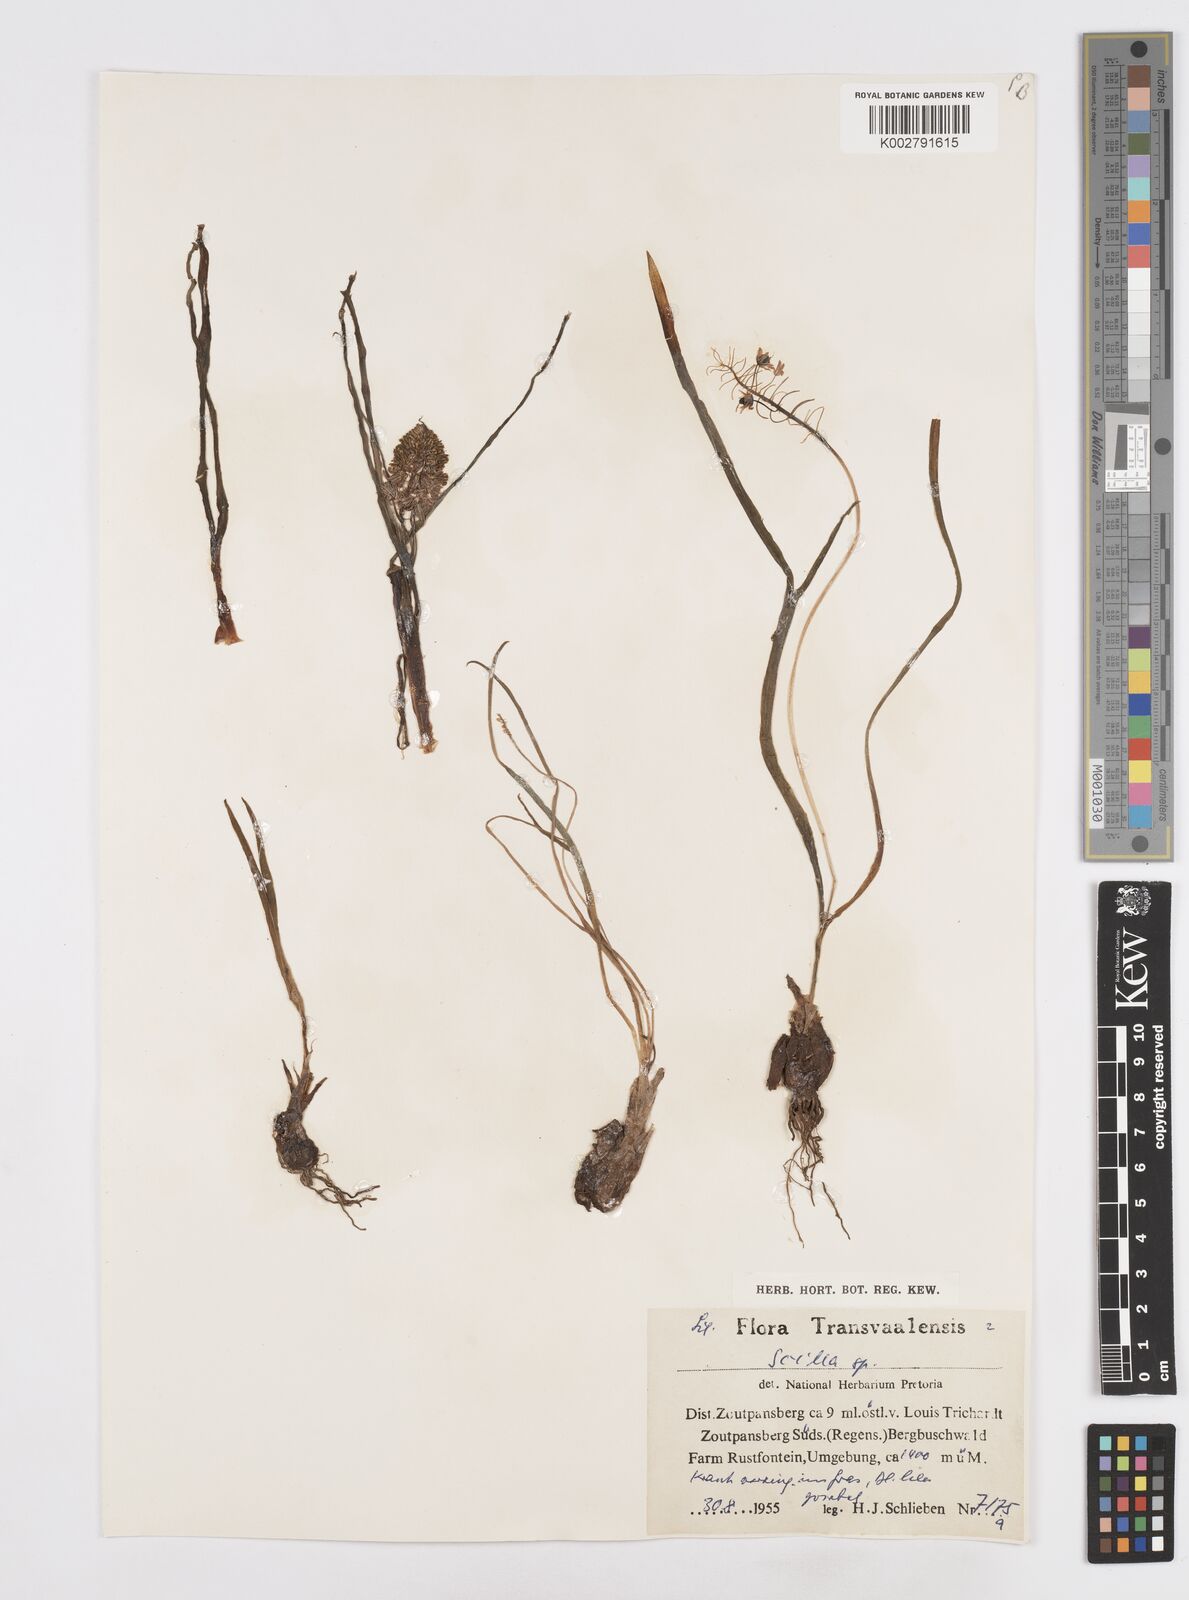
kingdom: Plantae
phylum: Tracheophyta
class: Liliopsida
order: Asparagales
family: Asparagaceae
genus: Scilla
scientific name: Scilla
